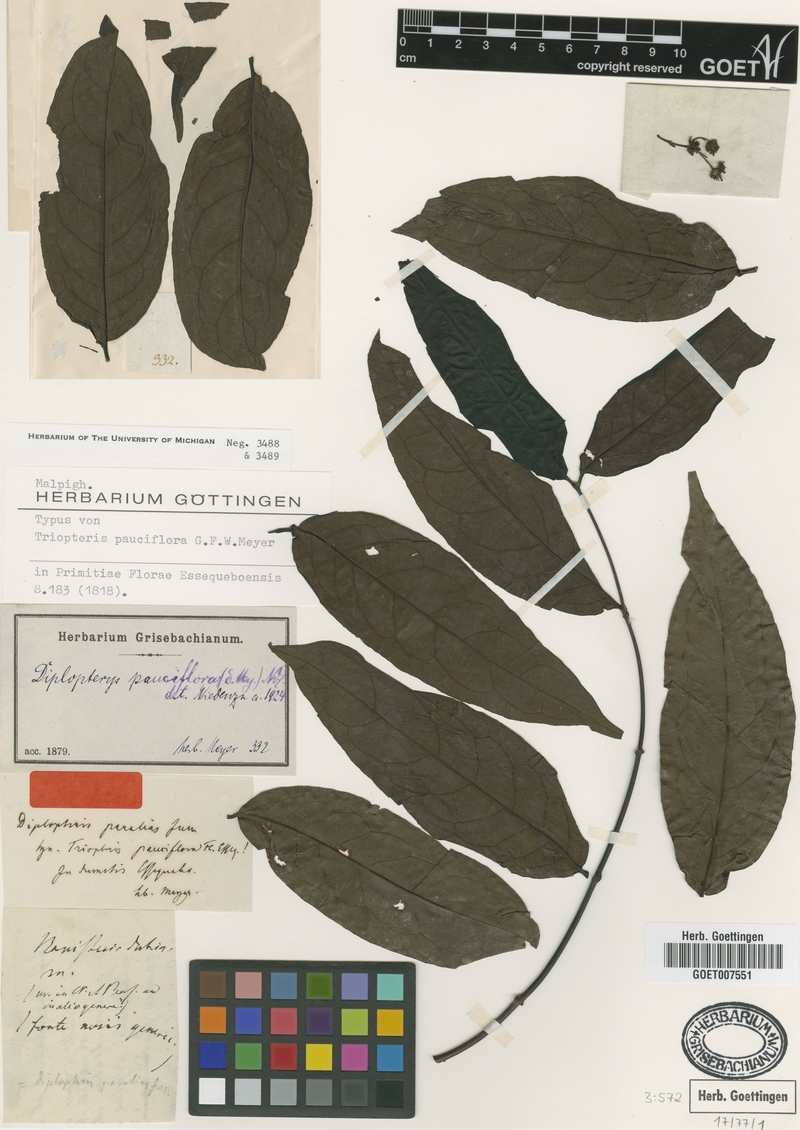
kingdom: Plantae
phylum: Tracheophyta
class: Magnoliopsida
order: Malpighiales
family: Malpighiaceae
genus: Diplopterys
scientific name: Diplopterys pauciflora
